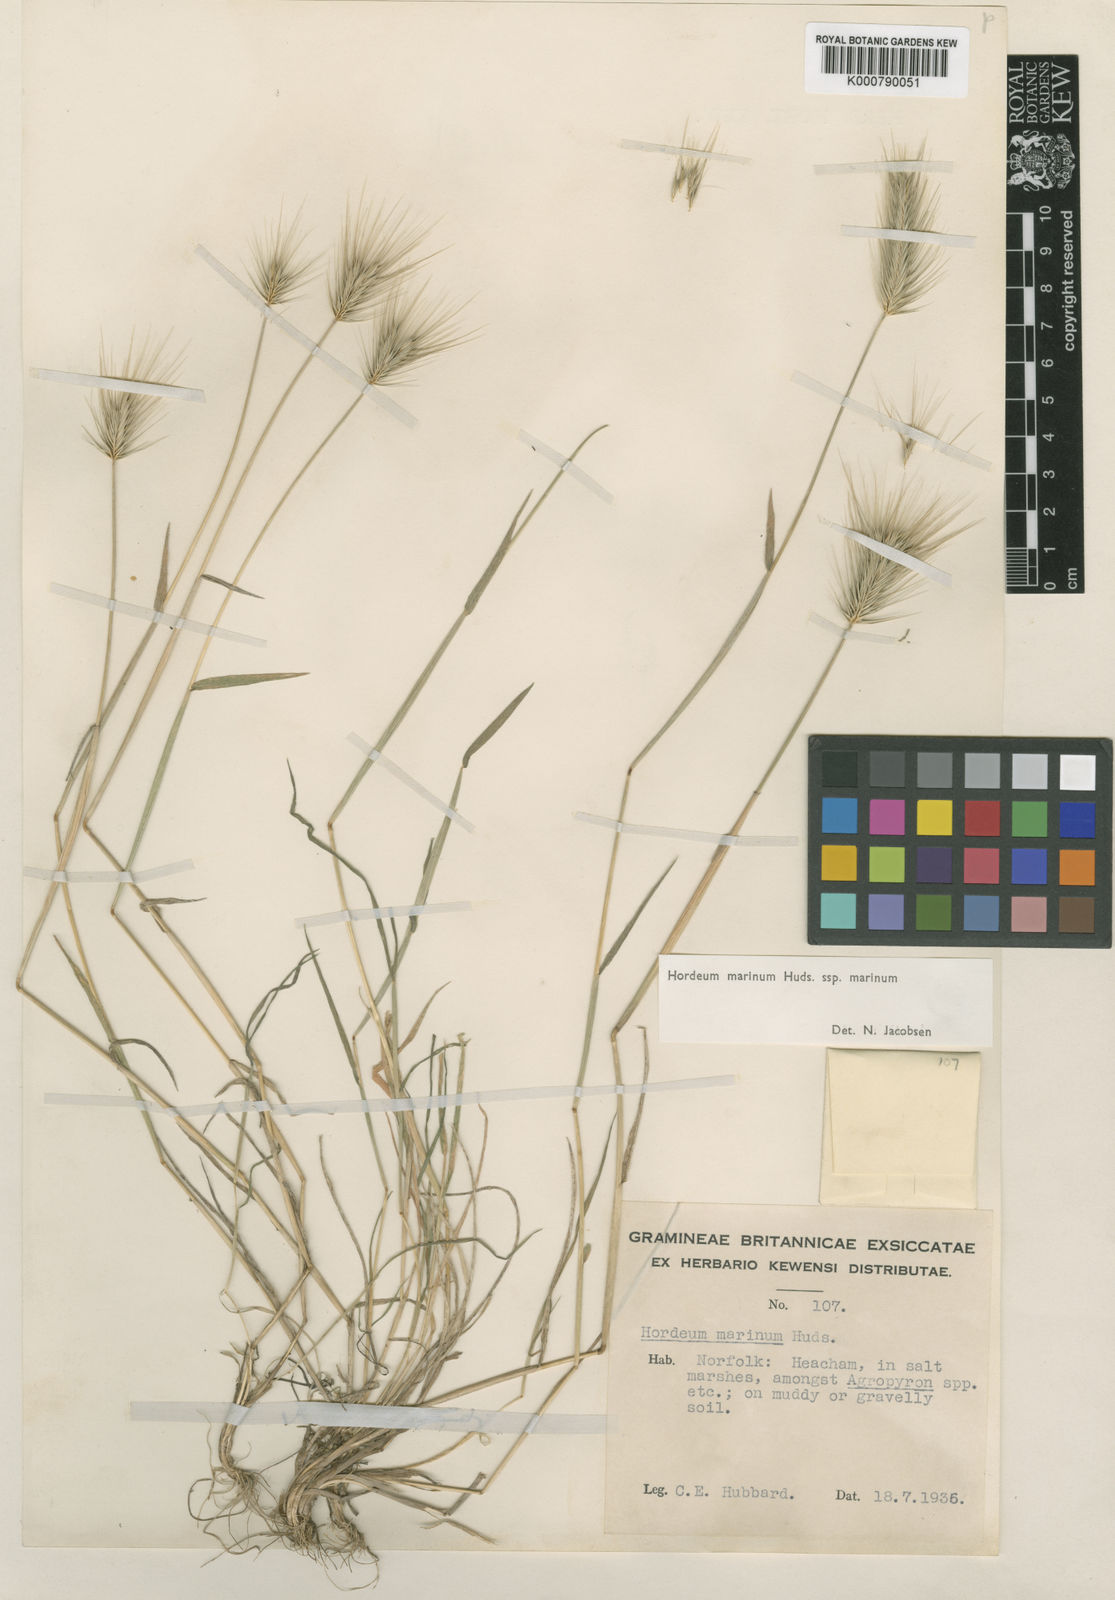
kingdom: Plantae
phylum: Tracheophyta
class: Liliopsida
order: Poales
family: Poaceae
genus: Hordeum
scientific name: Hordeum marinum
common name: Sea barley
